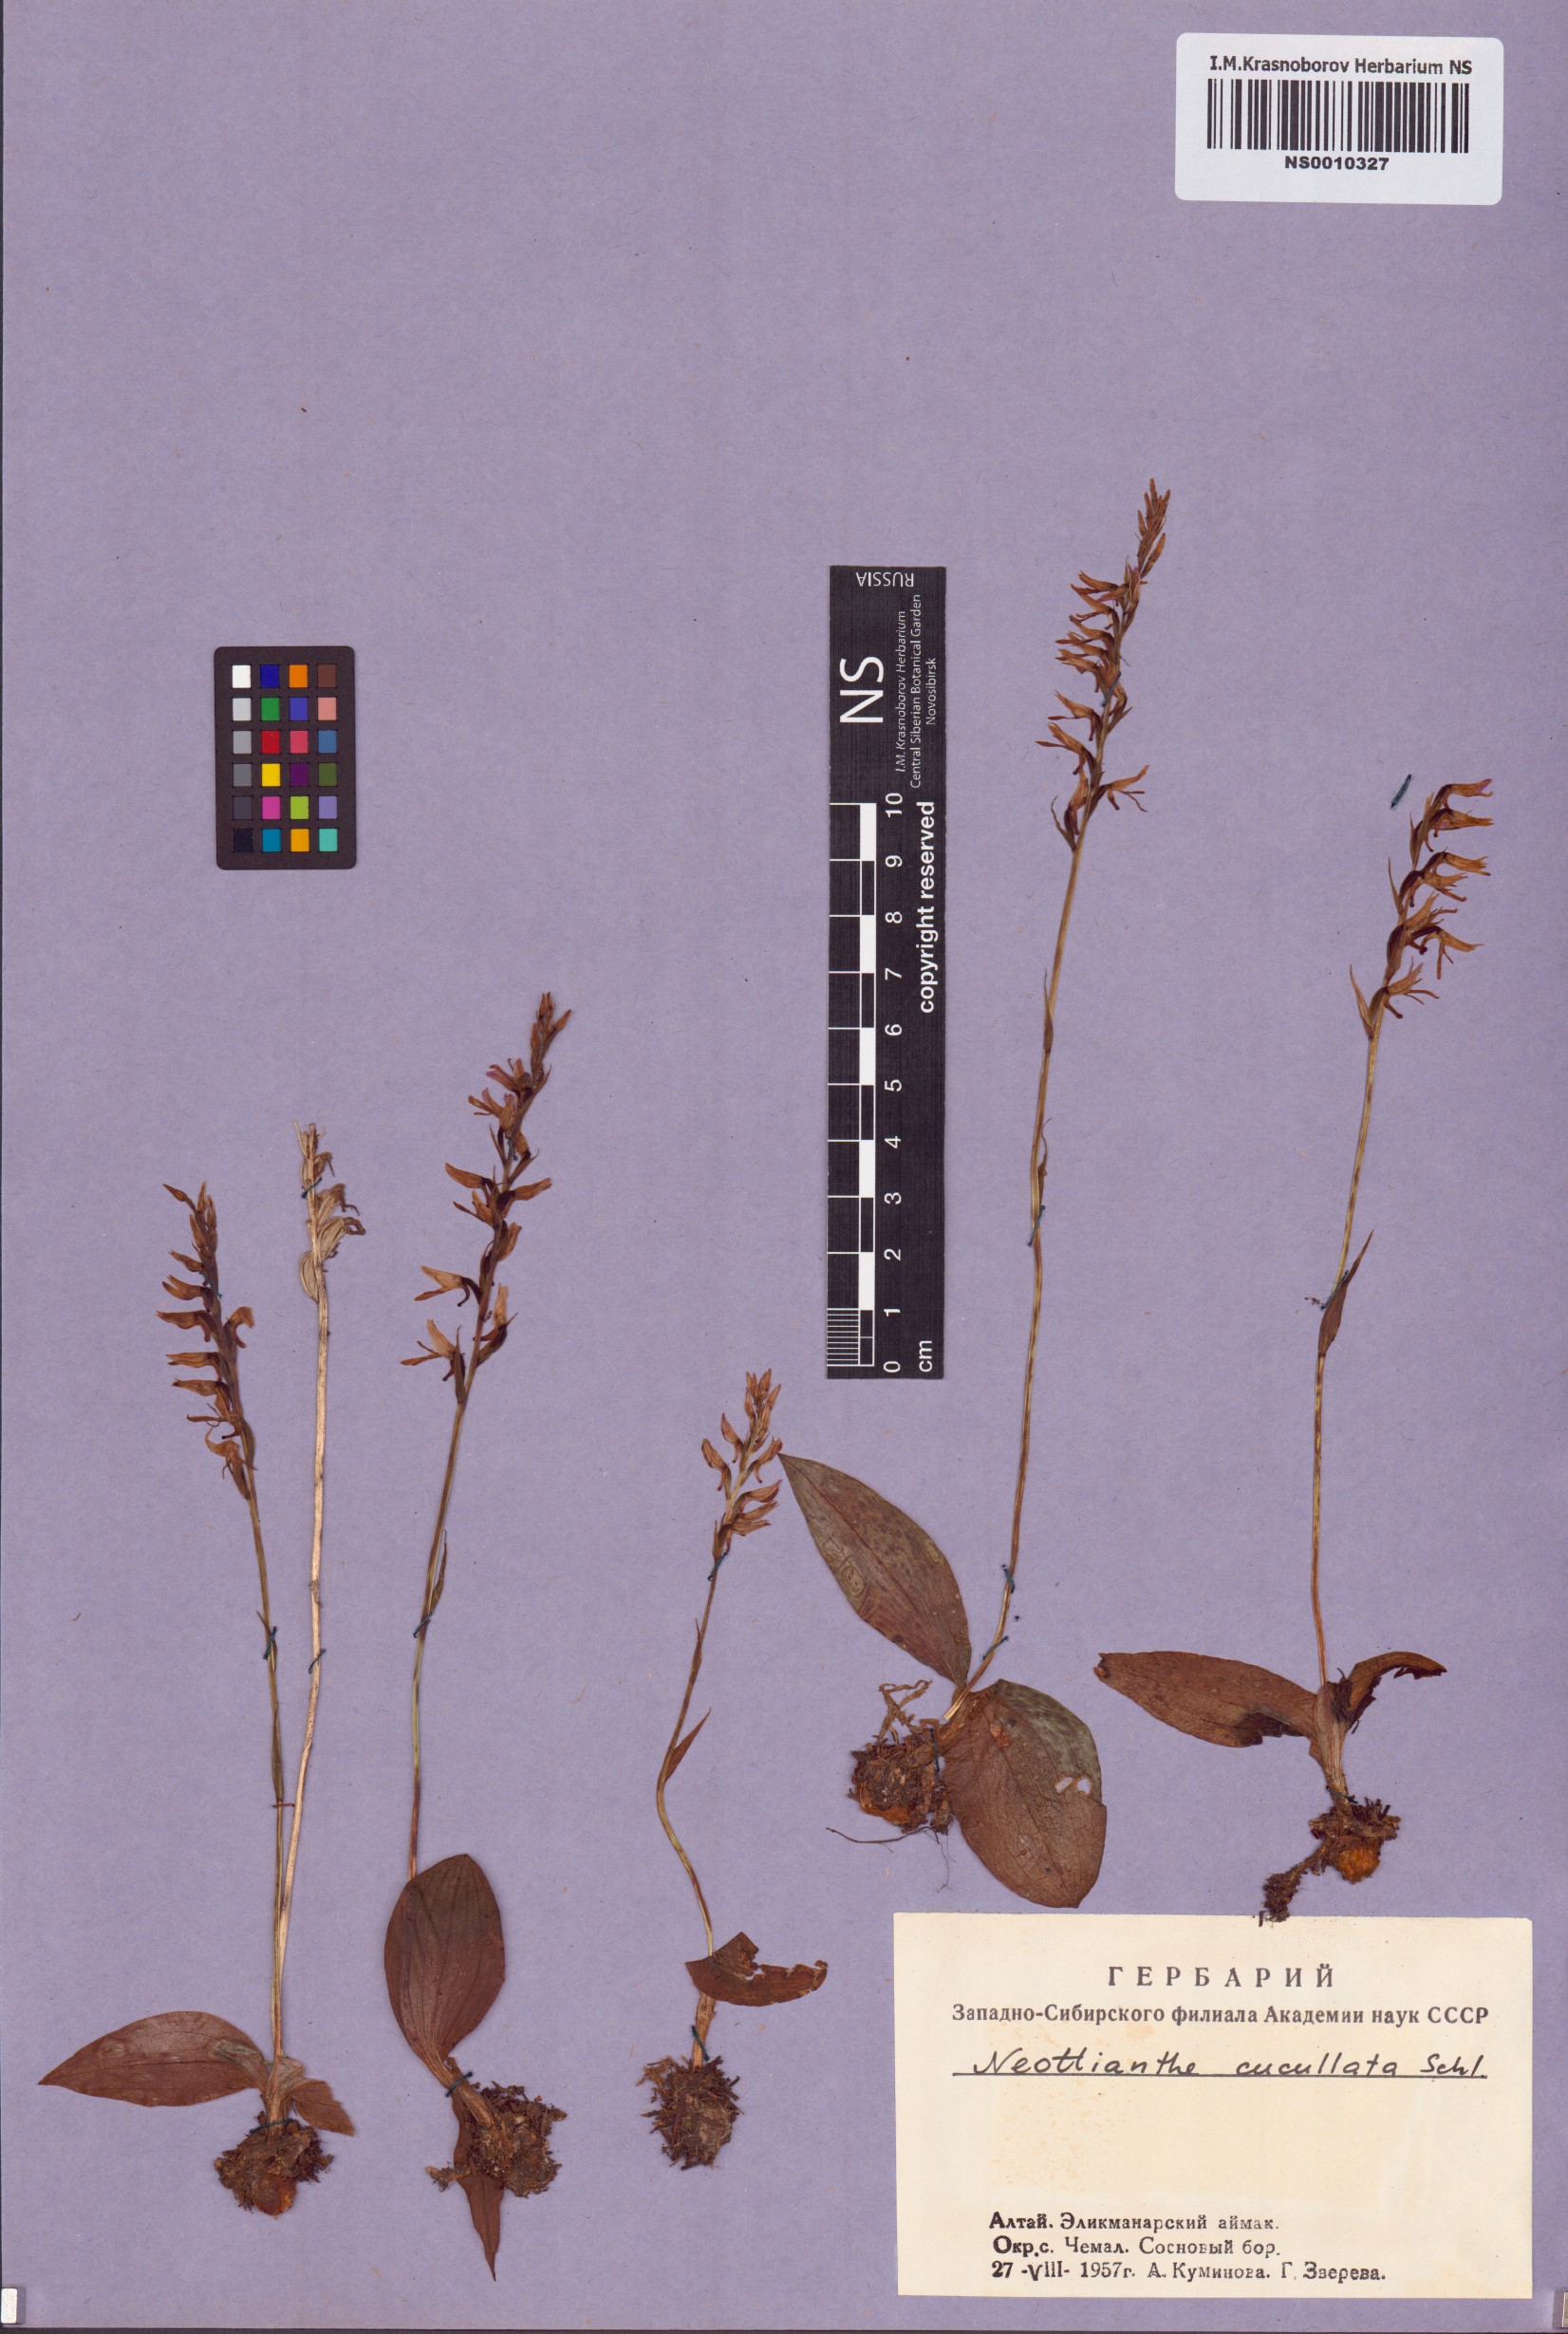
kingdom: Plantae
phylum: Tracheophyta
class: Liliopsida
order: Asparagales
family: Orchidaceae
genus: Hemipilia
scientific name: Hemipilia cucullata
